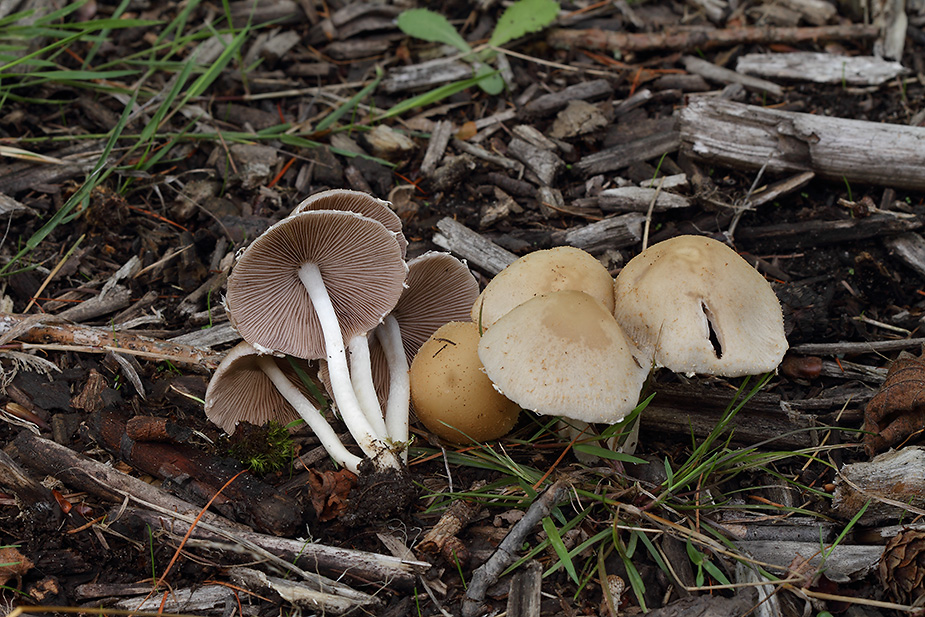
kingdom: Fungi
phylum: Basidiomycota
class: Agaricomycetes
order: Agaricales
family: Psathyrellaceae
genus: Candolleomyces
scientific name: Candolleomyces candolleanus
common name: Candolles mørkhat
